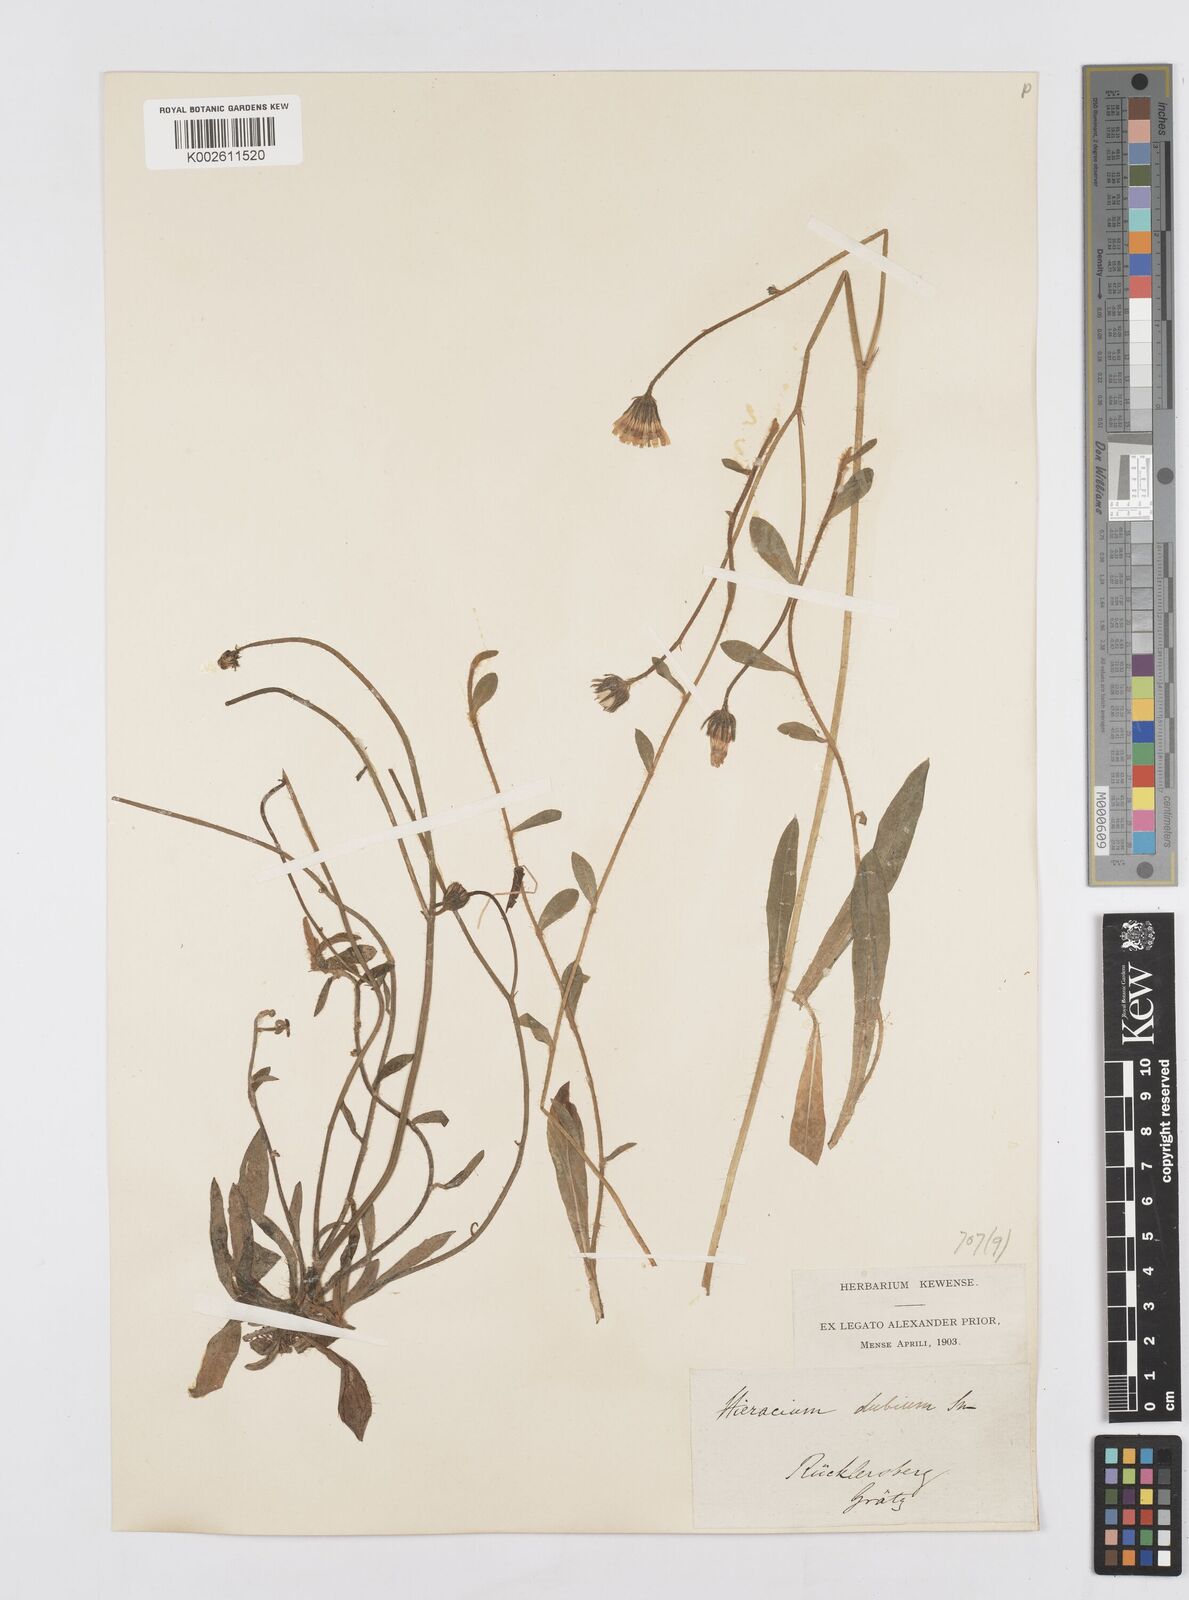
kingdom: Plantae
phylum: Tracheophyta
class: Magnoliopsida
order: Asterales
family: Asteraceae
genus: Pilosella
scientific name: Pilosella leptophyton
